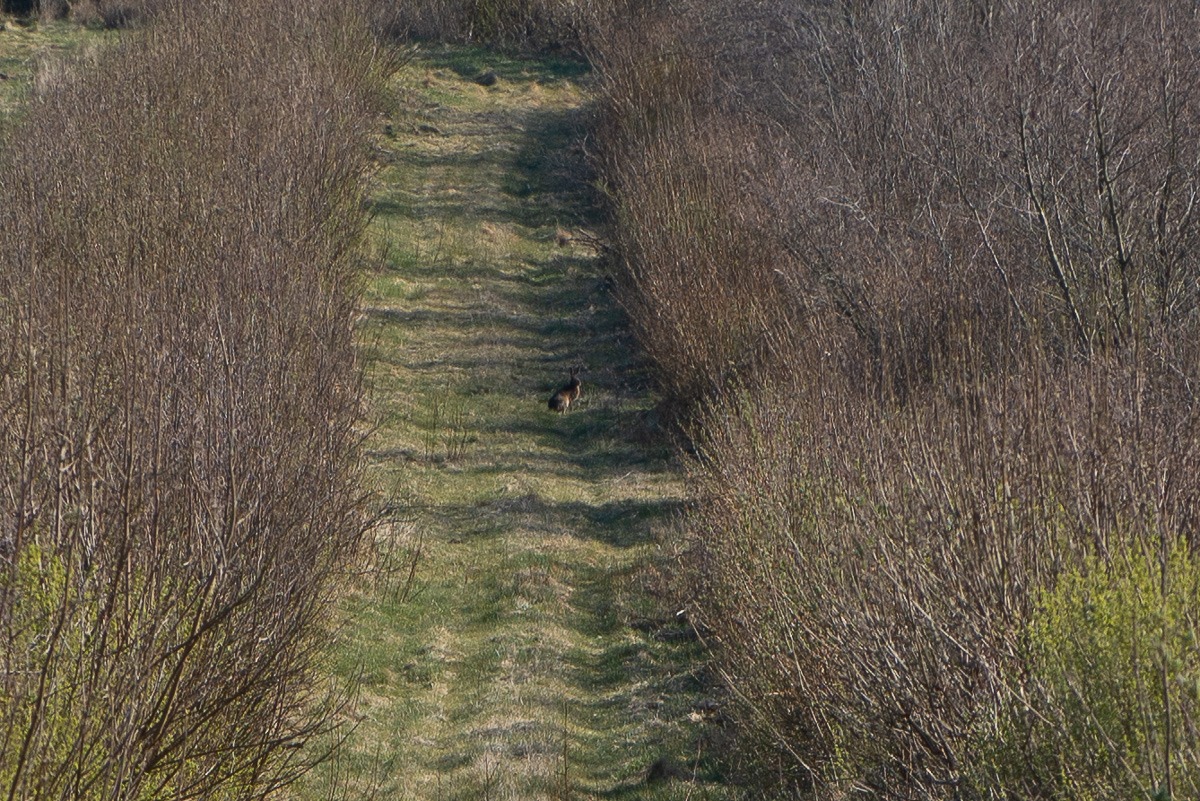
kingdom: Animalia
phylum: Chordata
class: Mammalia
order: Lagomorpha
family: Leporidae
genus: Lepus
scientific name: Lepus europaeus
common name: Hare
